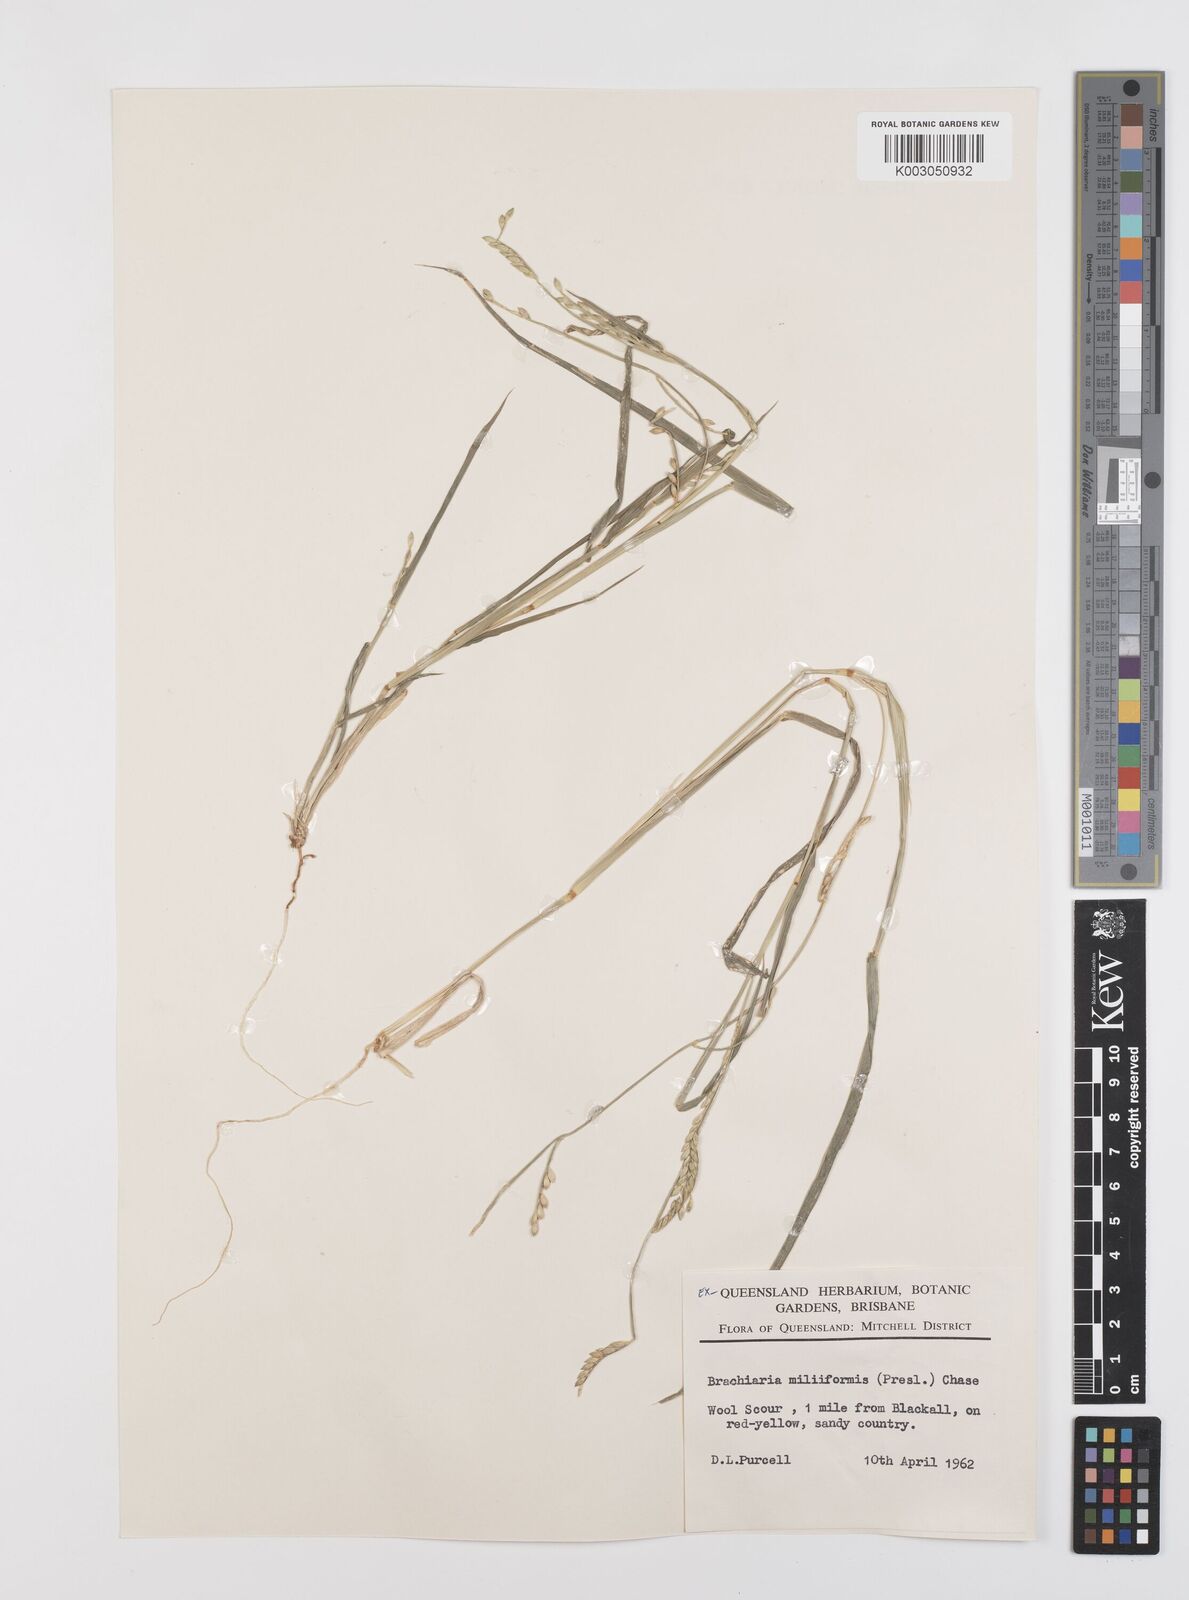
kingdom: Plantae
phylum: Tracheophyta
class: Liliopsida
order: Poales
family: Poaceae
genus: Urochloa
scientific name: Urochloa subquadripara
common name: Armgrass millet
